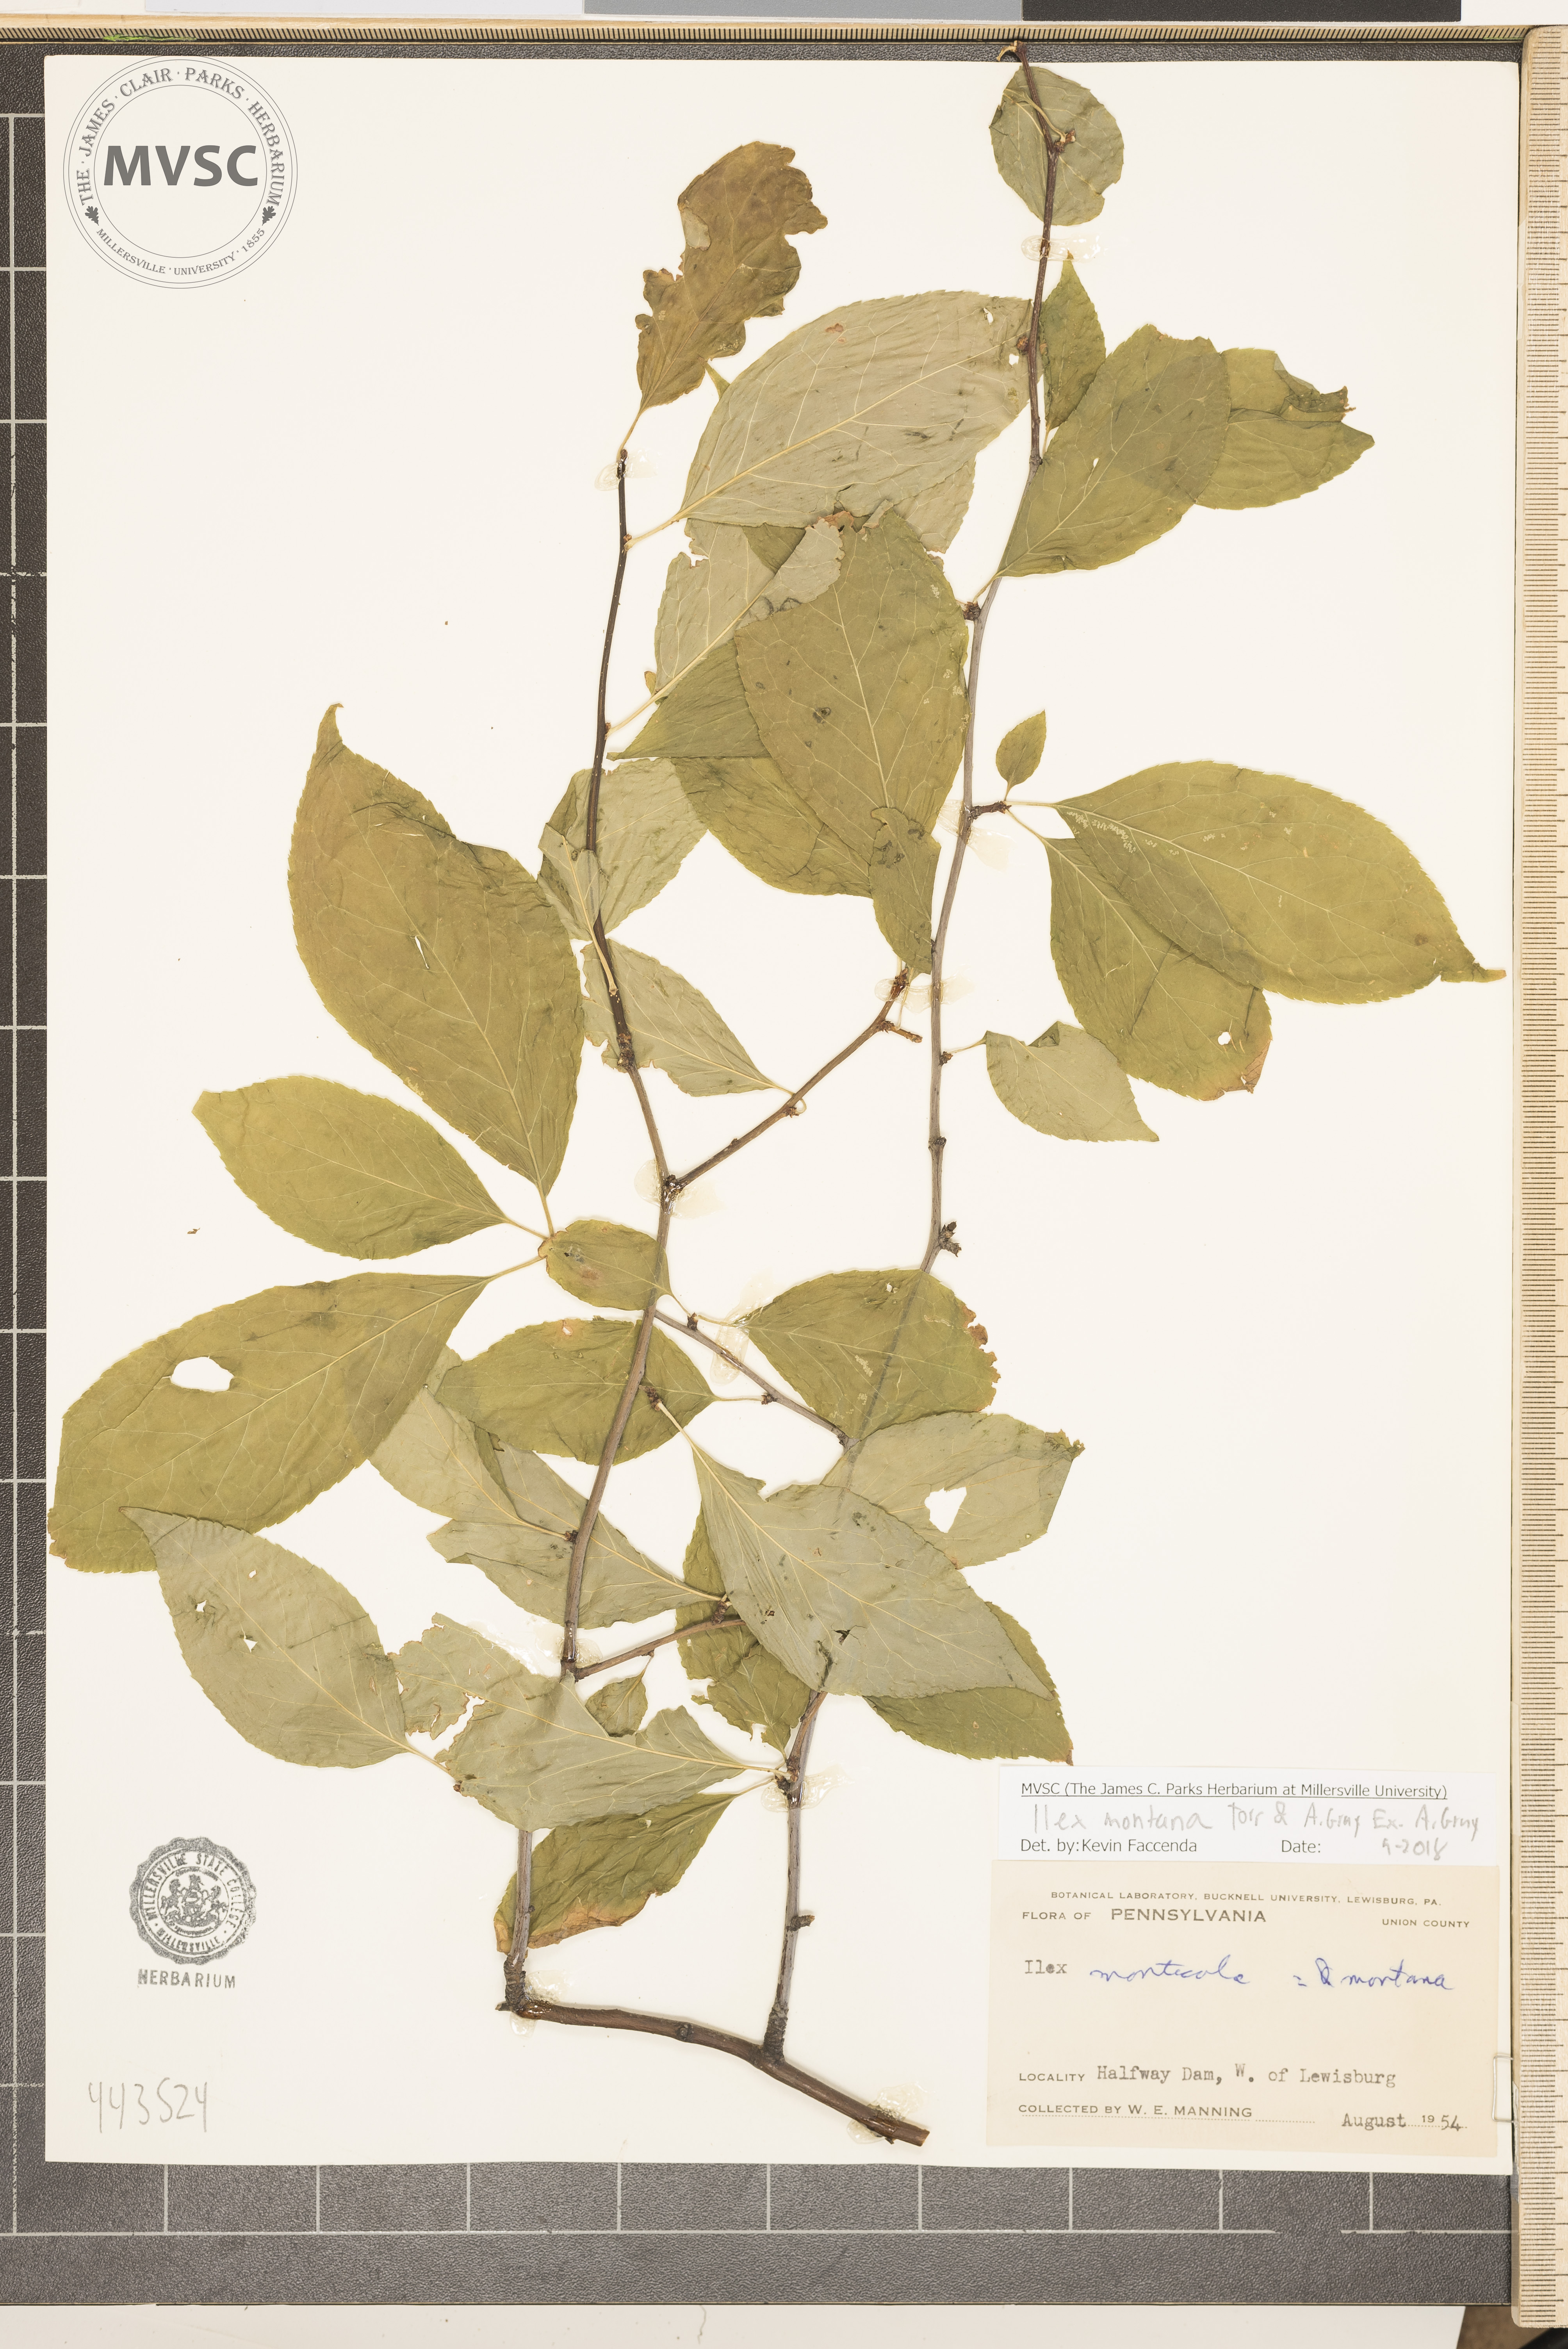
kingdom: Plantae
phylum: Tracheophyta
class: Magnoliopsida
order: Aquifoliales
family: Aquifoliaceae
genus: Ilex
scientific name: Ilex montana
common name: Mountain winterberry
